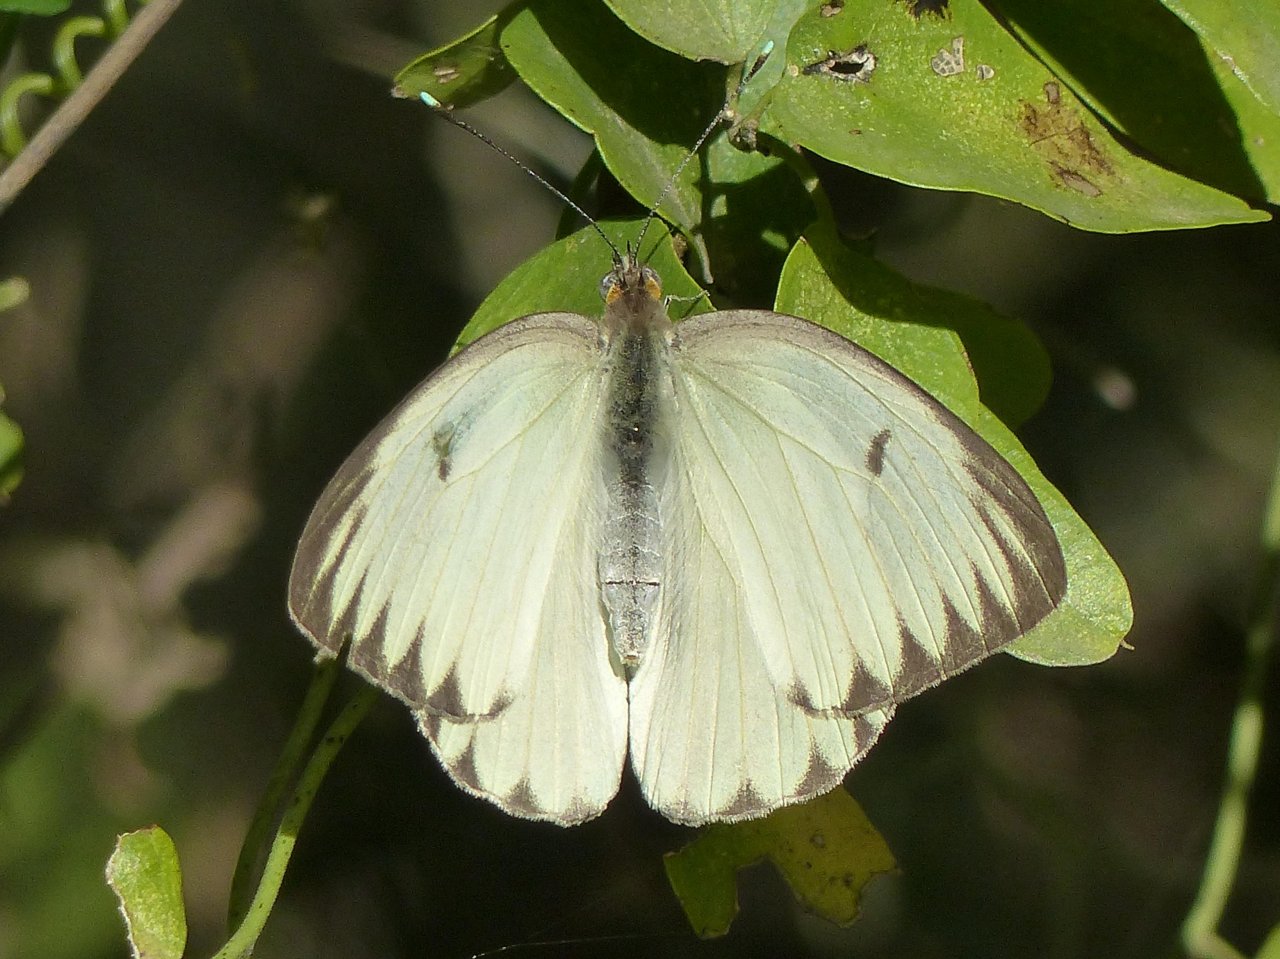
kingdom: Animalia
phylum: Arthropoda
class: Insecta
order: Lepidoptera
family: Pieridae
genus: Ascia
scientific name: Ascia monuste
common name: Great Southern White
